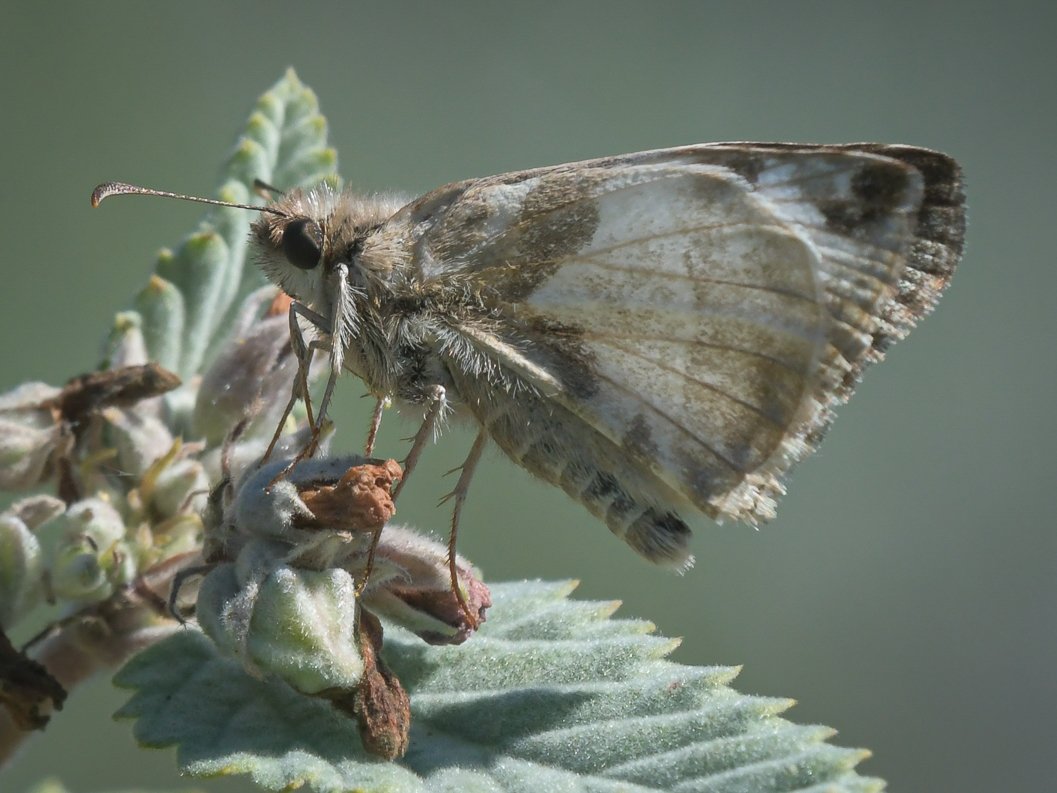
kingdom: Animalia
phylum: Arthropoda
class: Insecta
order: Lepidoptera
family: Hesperiidae
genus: Heliopetes
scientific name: Heliopetes laviana
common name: Laviana White-Skipper
